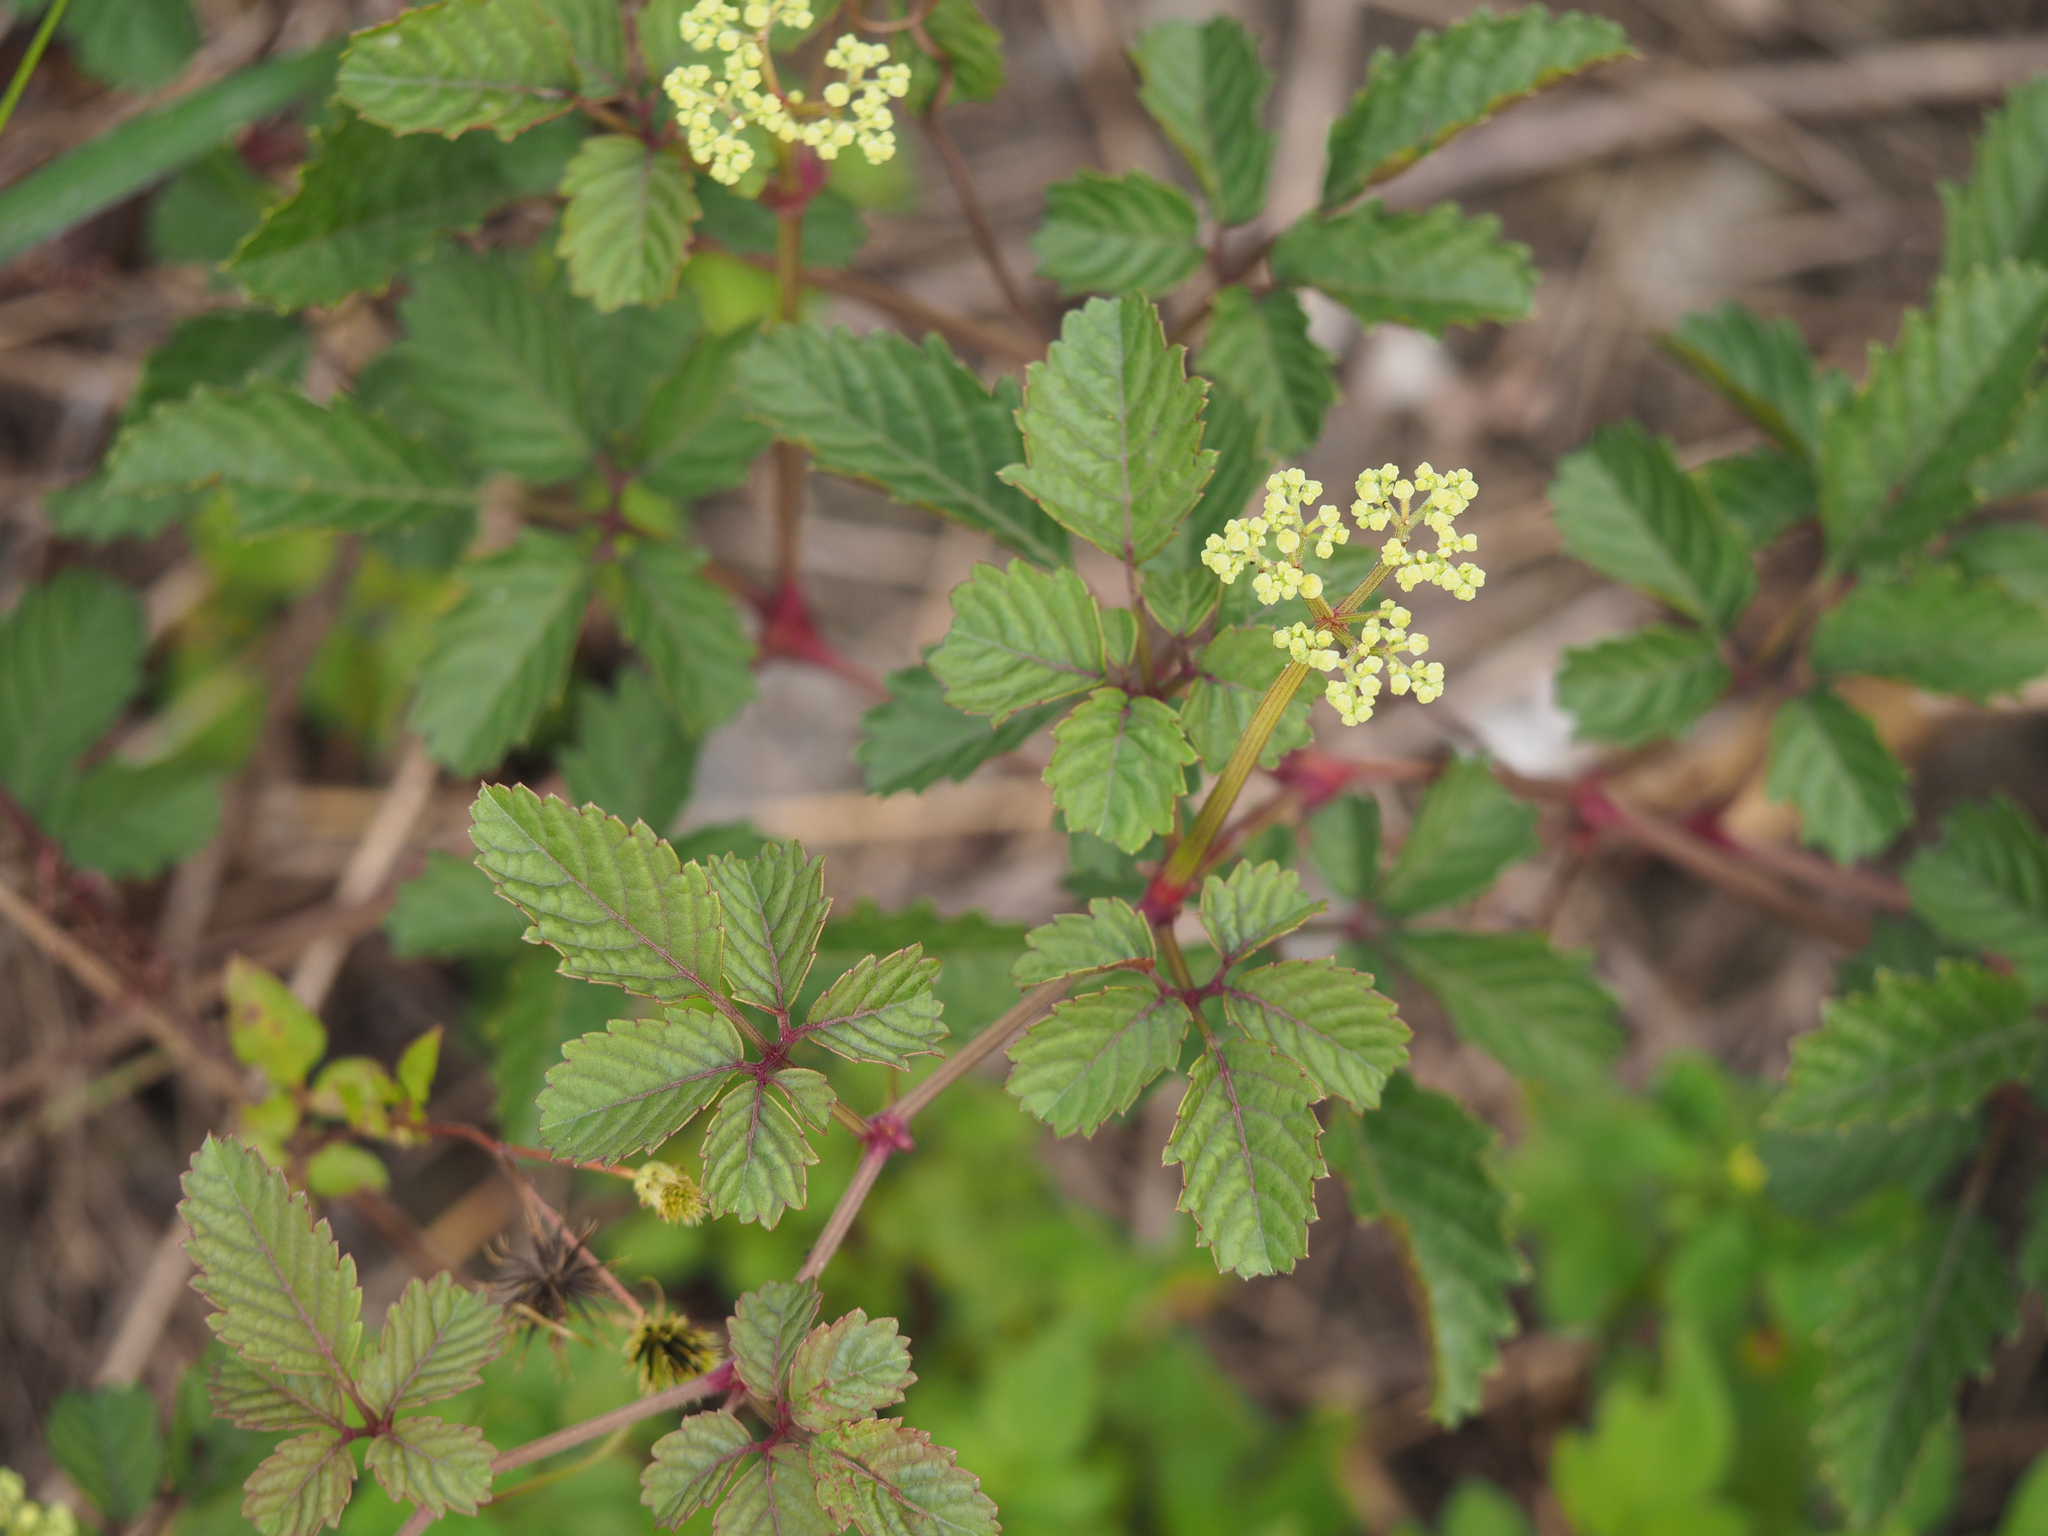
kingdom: Plantae
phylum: Tracheophyta
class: Magnoliopsida
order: Vitales
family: Vitaceae
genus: Causonis
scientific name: Causonis japonica
